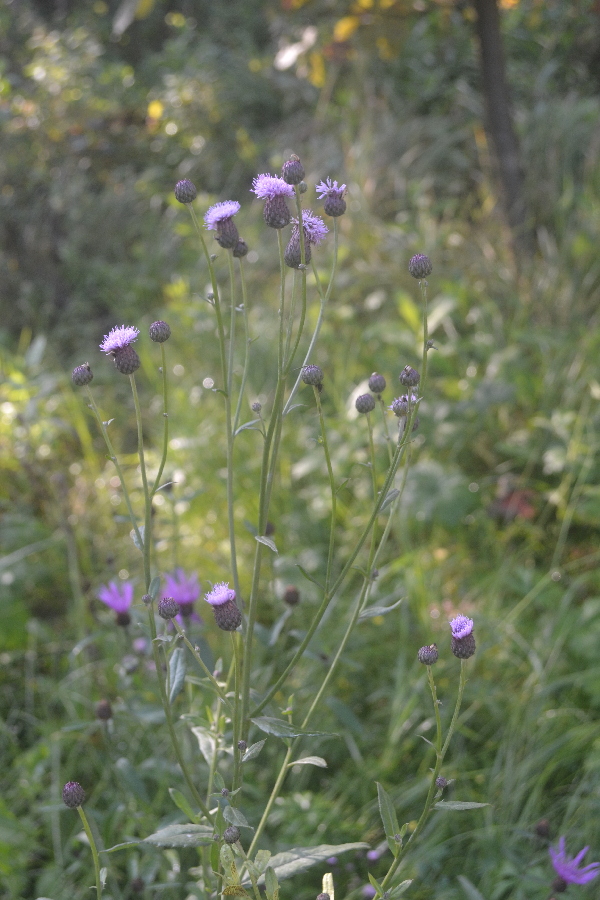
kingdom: Plantae
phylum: Tracheophyta
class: Magnoliopsida
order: Asterales
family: Asteraceae
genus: Cirsium
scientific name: Cirsium arvense
